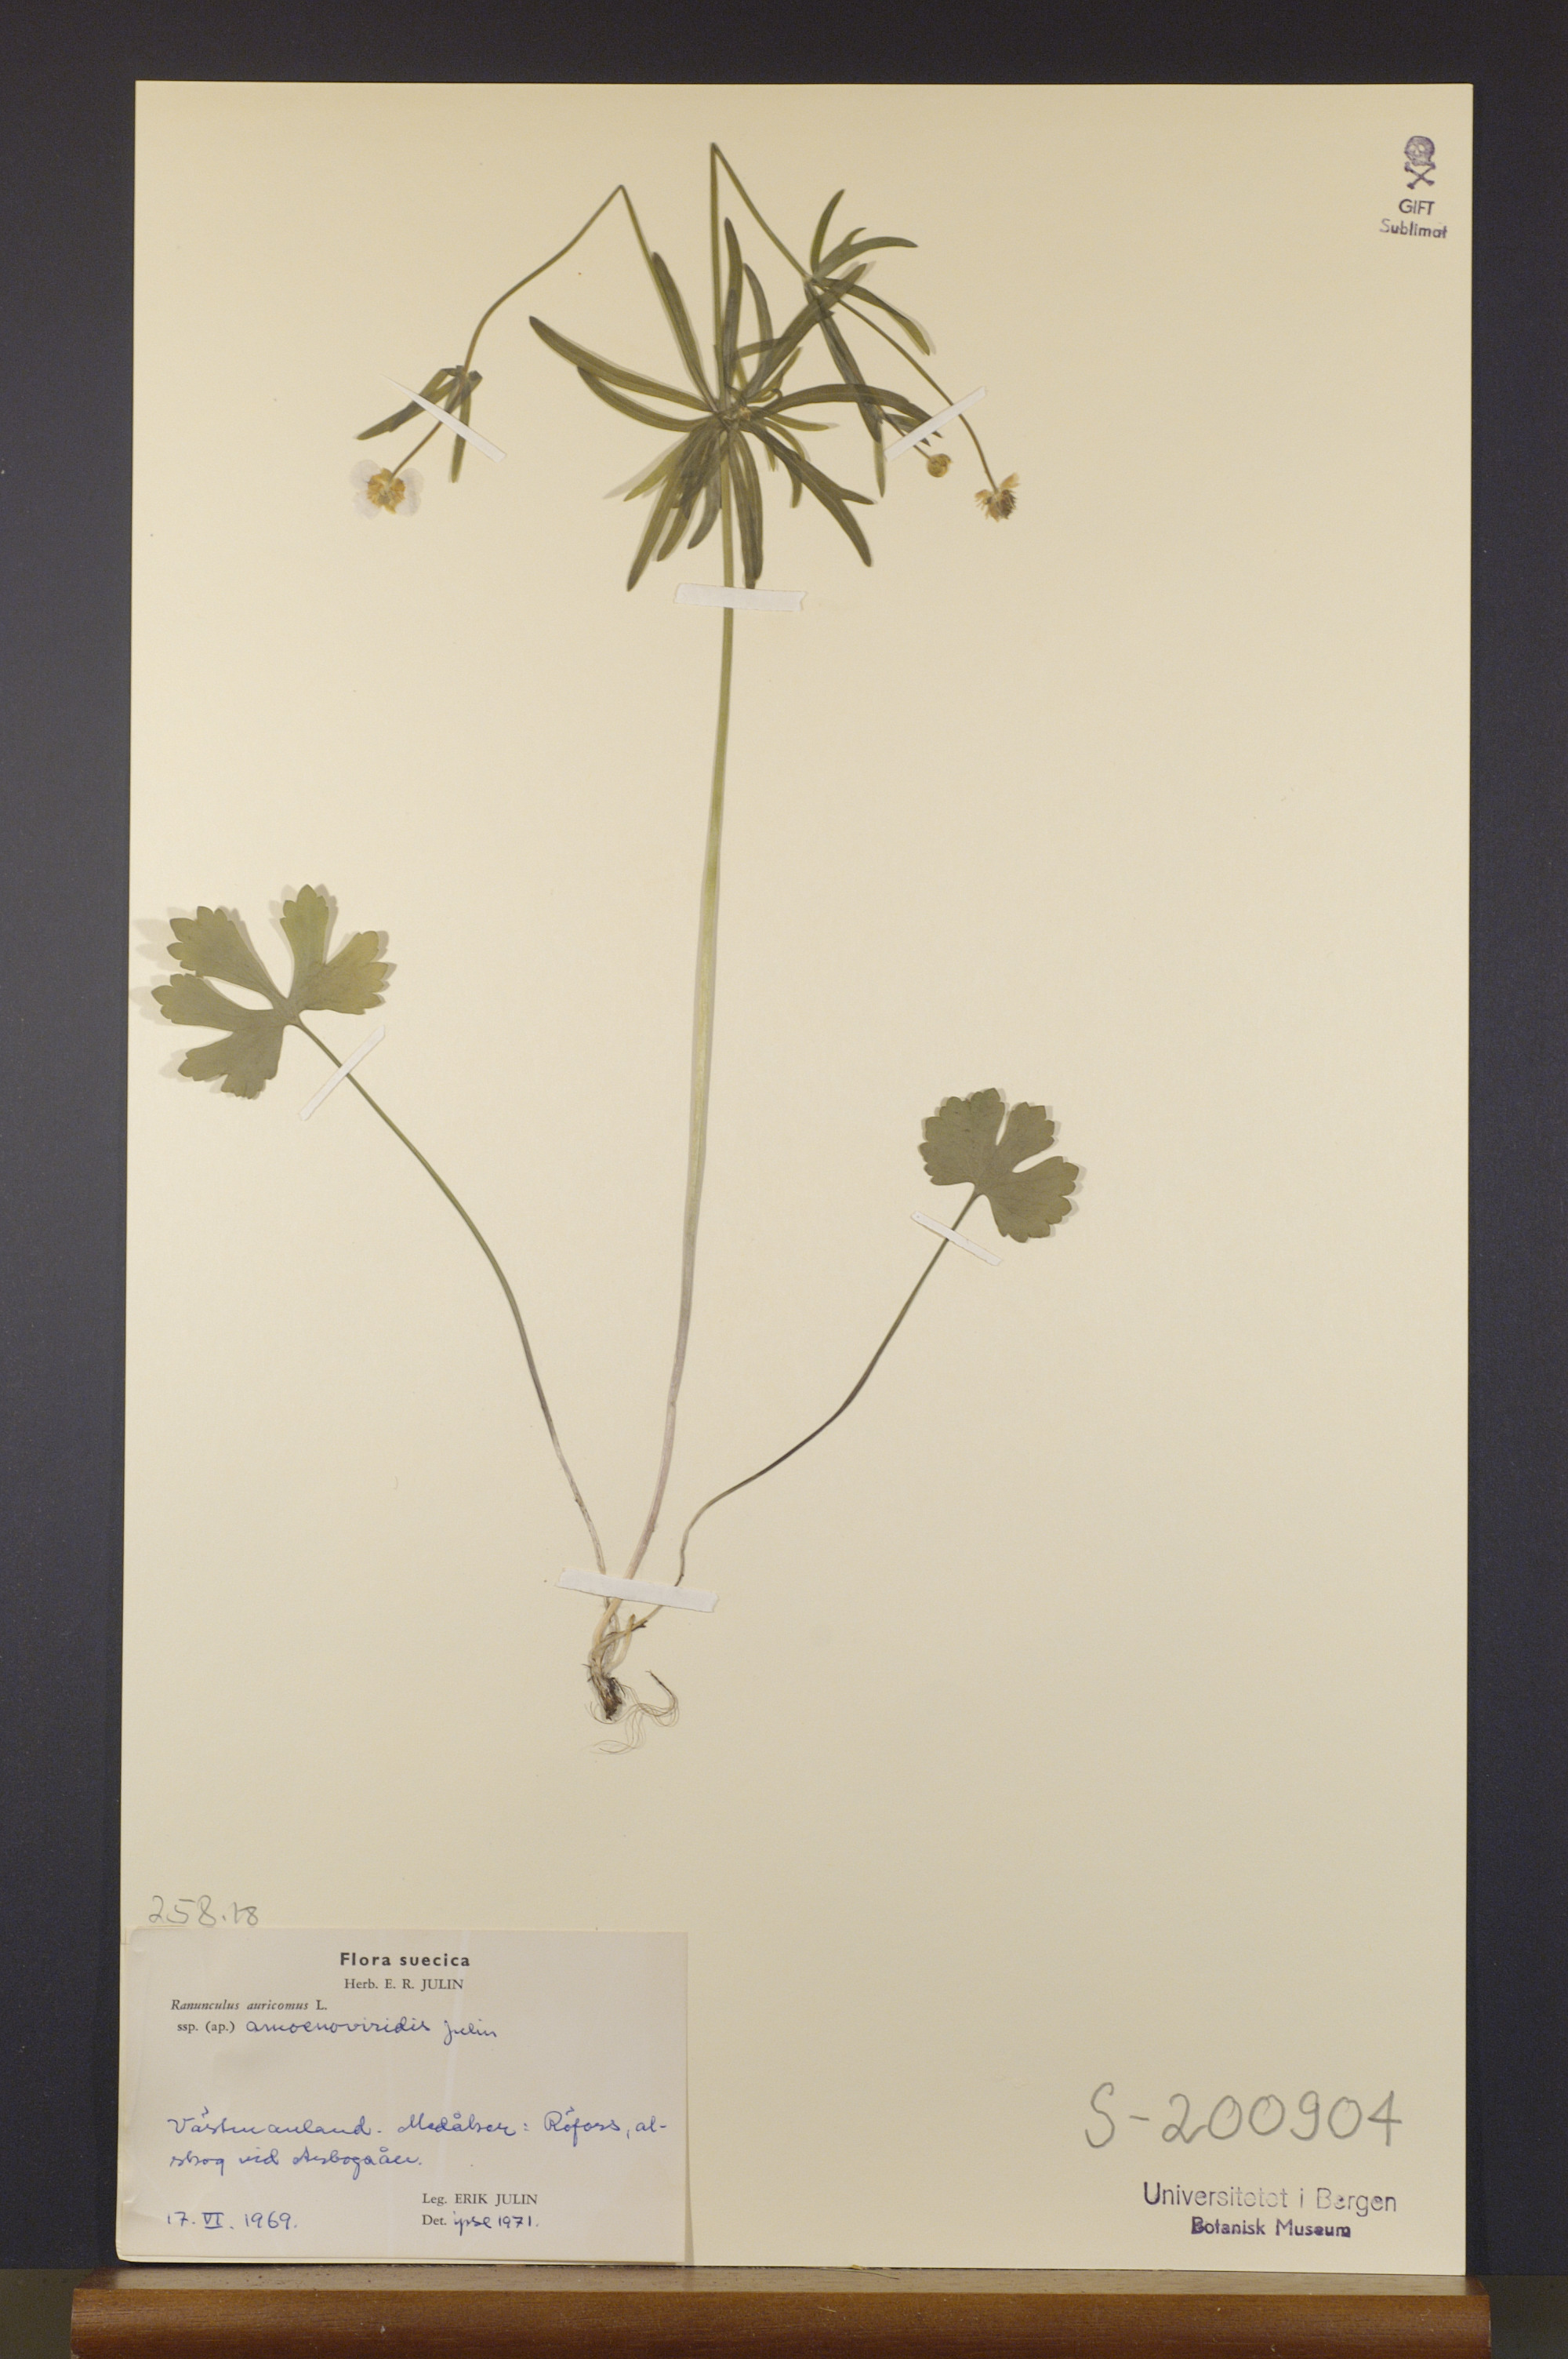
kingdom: Plantae
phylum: Tracheophyta
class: Magnoliopsida
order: Ranunculales
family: Ranunculaceae
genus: Ranunculus
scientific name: Ranunculus amoenoviridis
